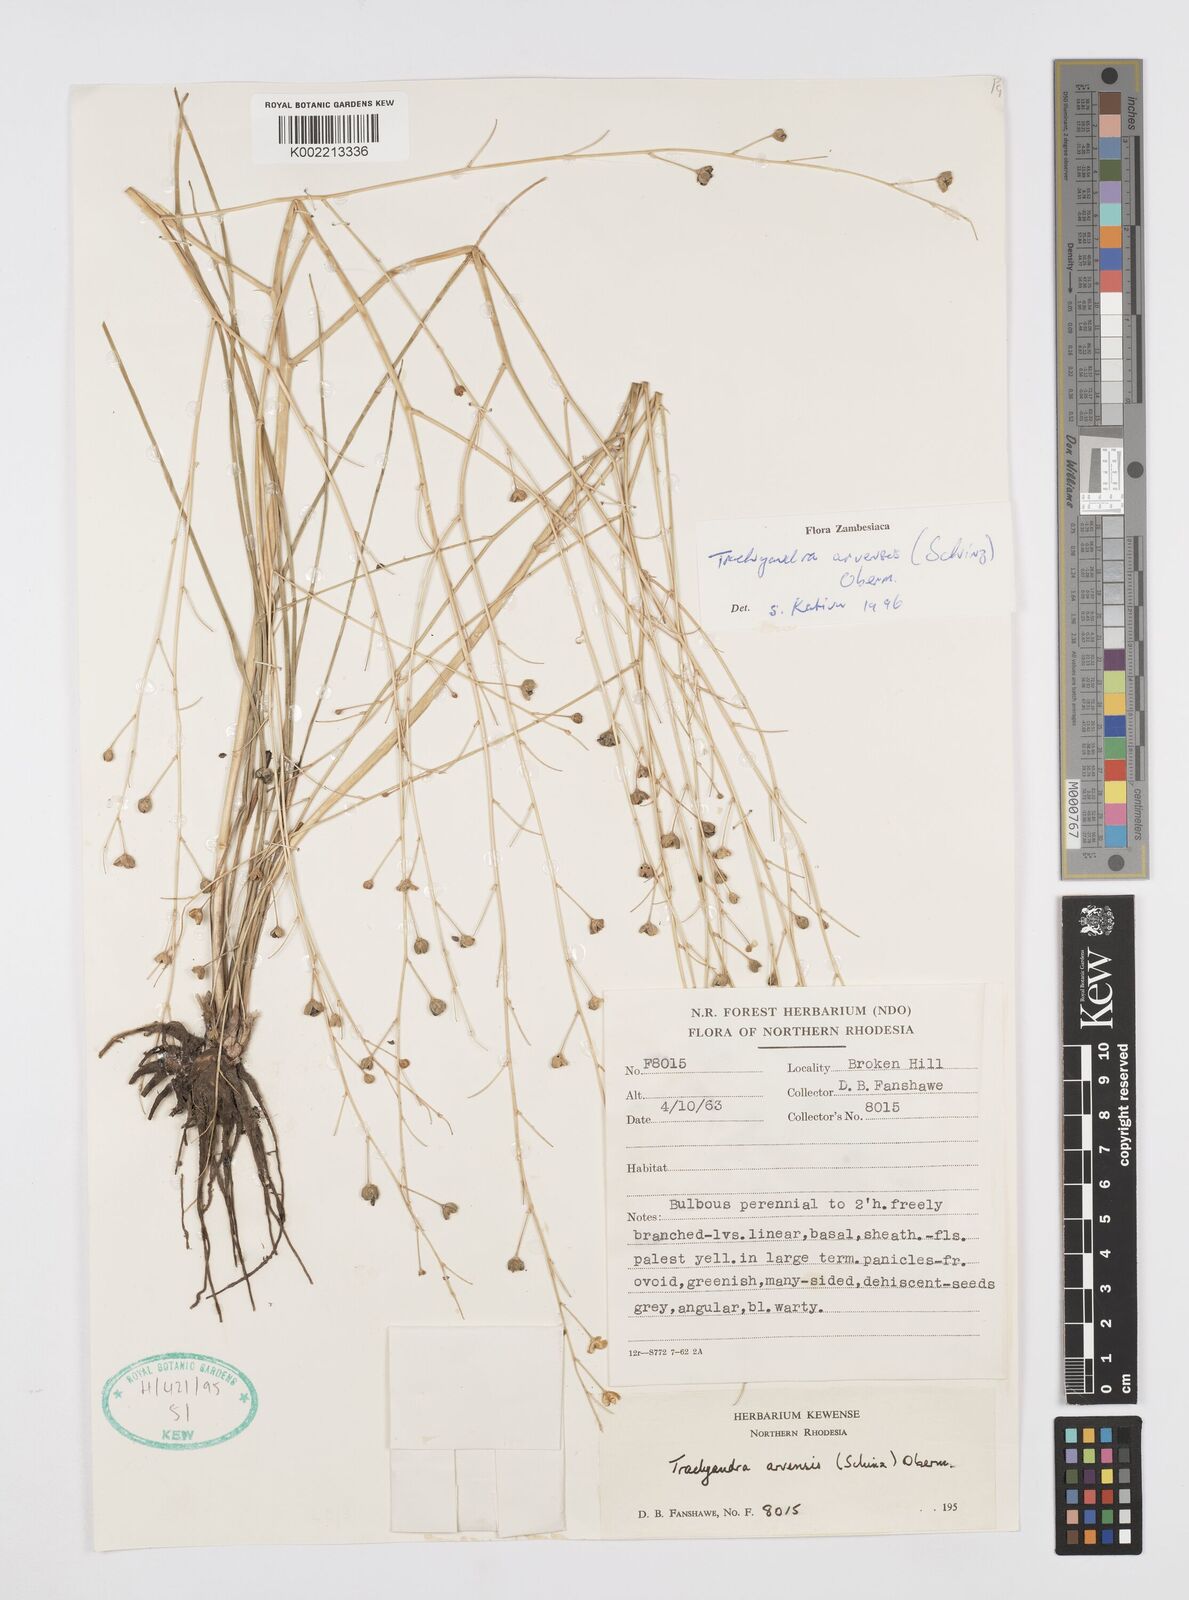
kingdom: Plantae
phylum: Tracheophyta
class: Liliopsida
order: Asparagales
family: Asphodelaceae
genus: Trachyandra
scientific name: Trachyandra arvensis
